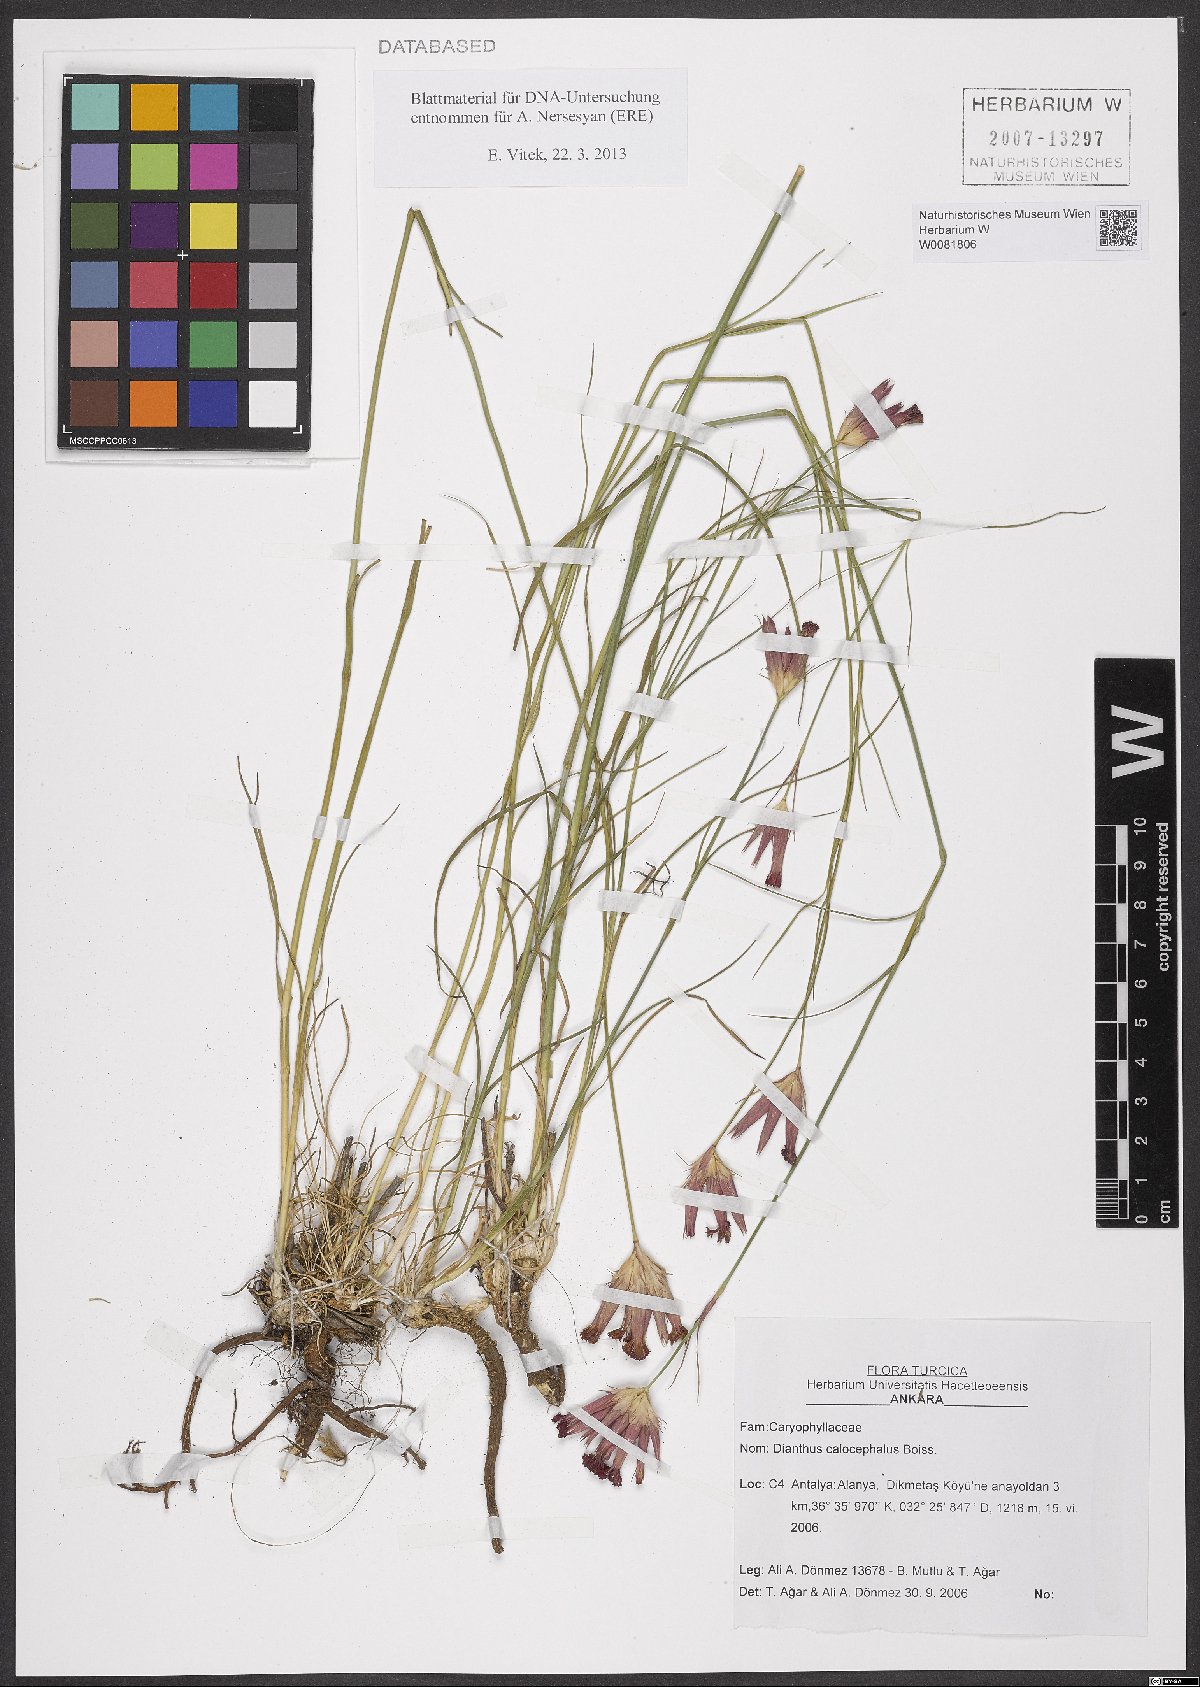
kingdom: Plantae
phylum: Tracheophyta
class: Magnoliopsida
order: Caryophyllales
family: Caryophyllaceae
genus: Dianthus
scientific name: Dianthus cruentus
